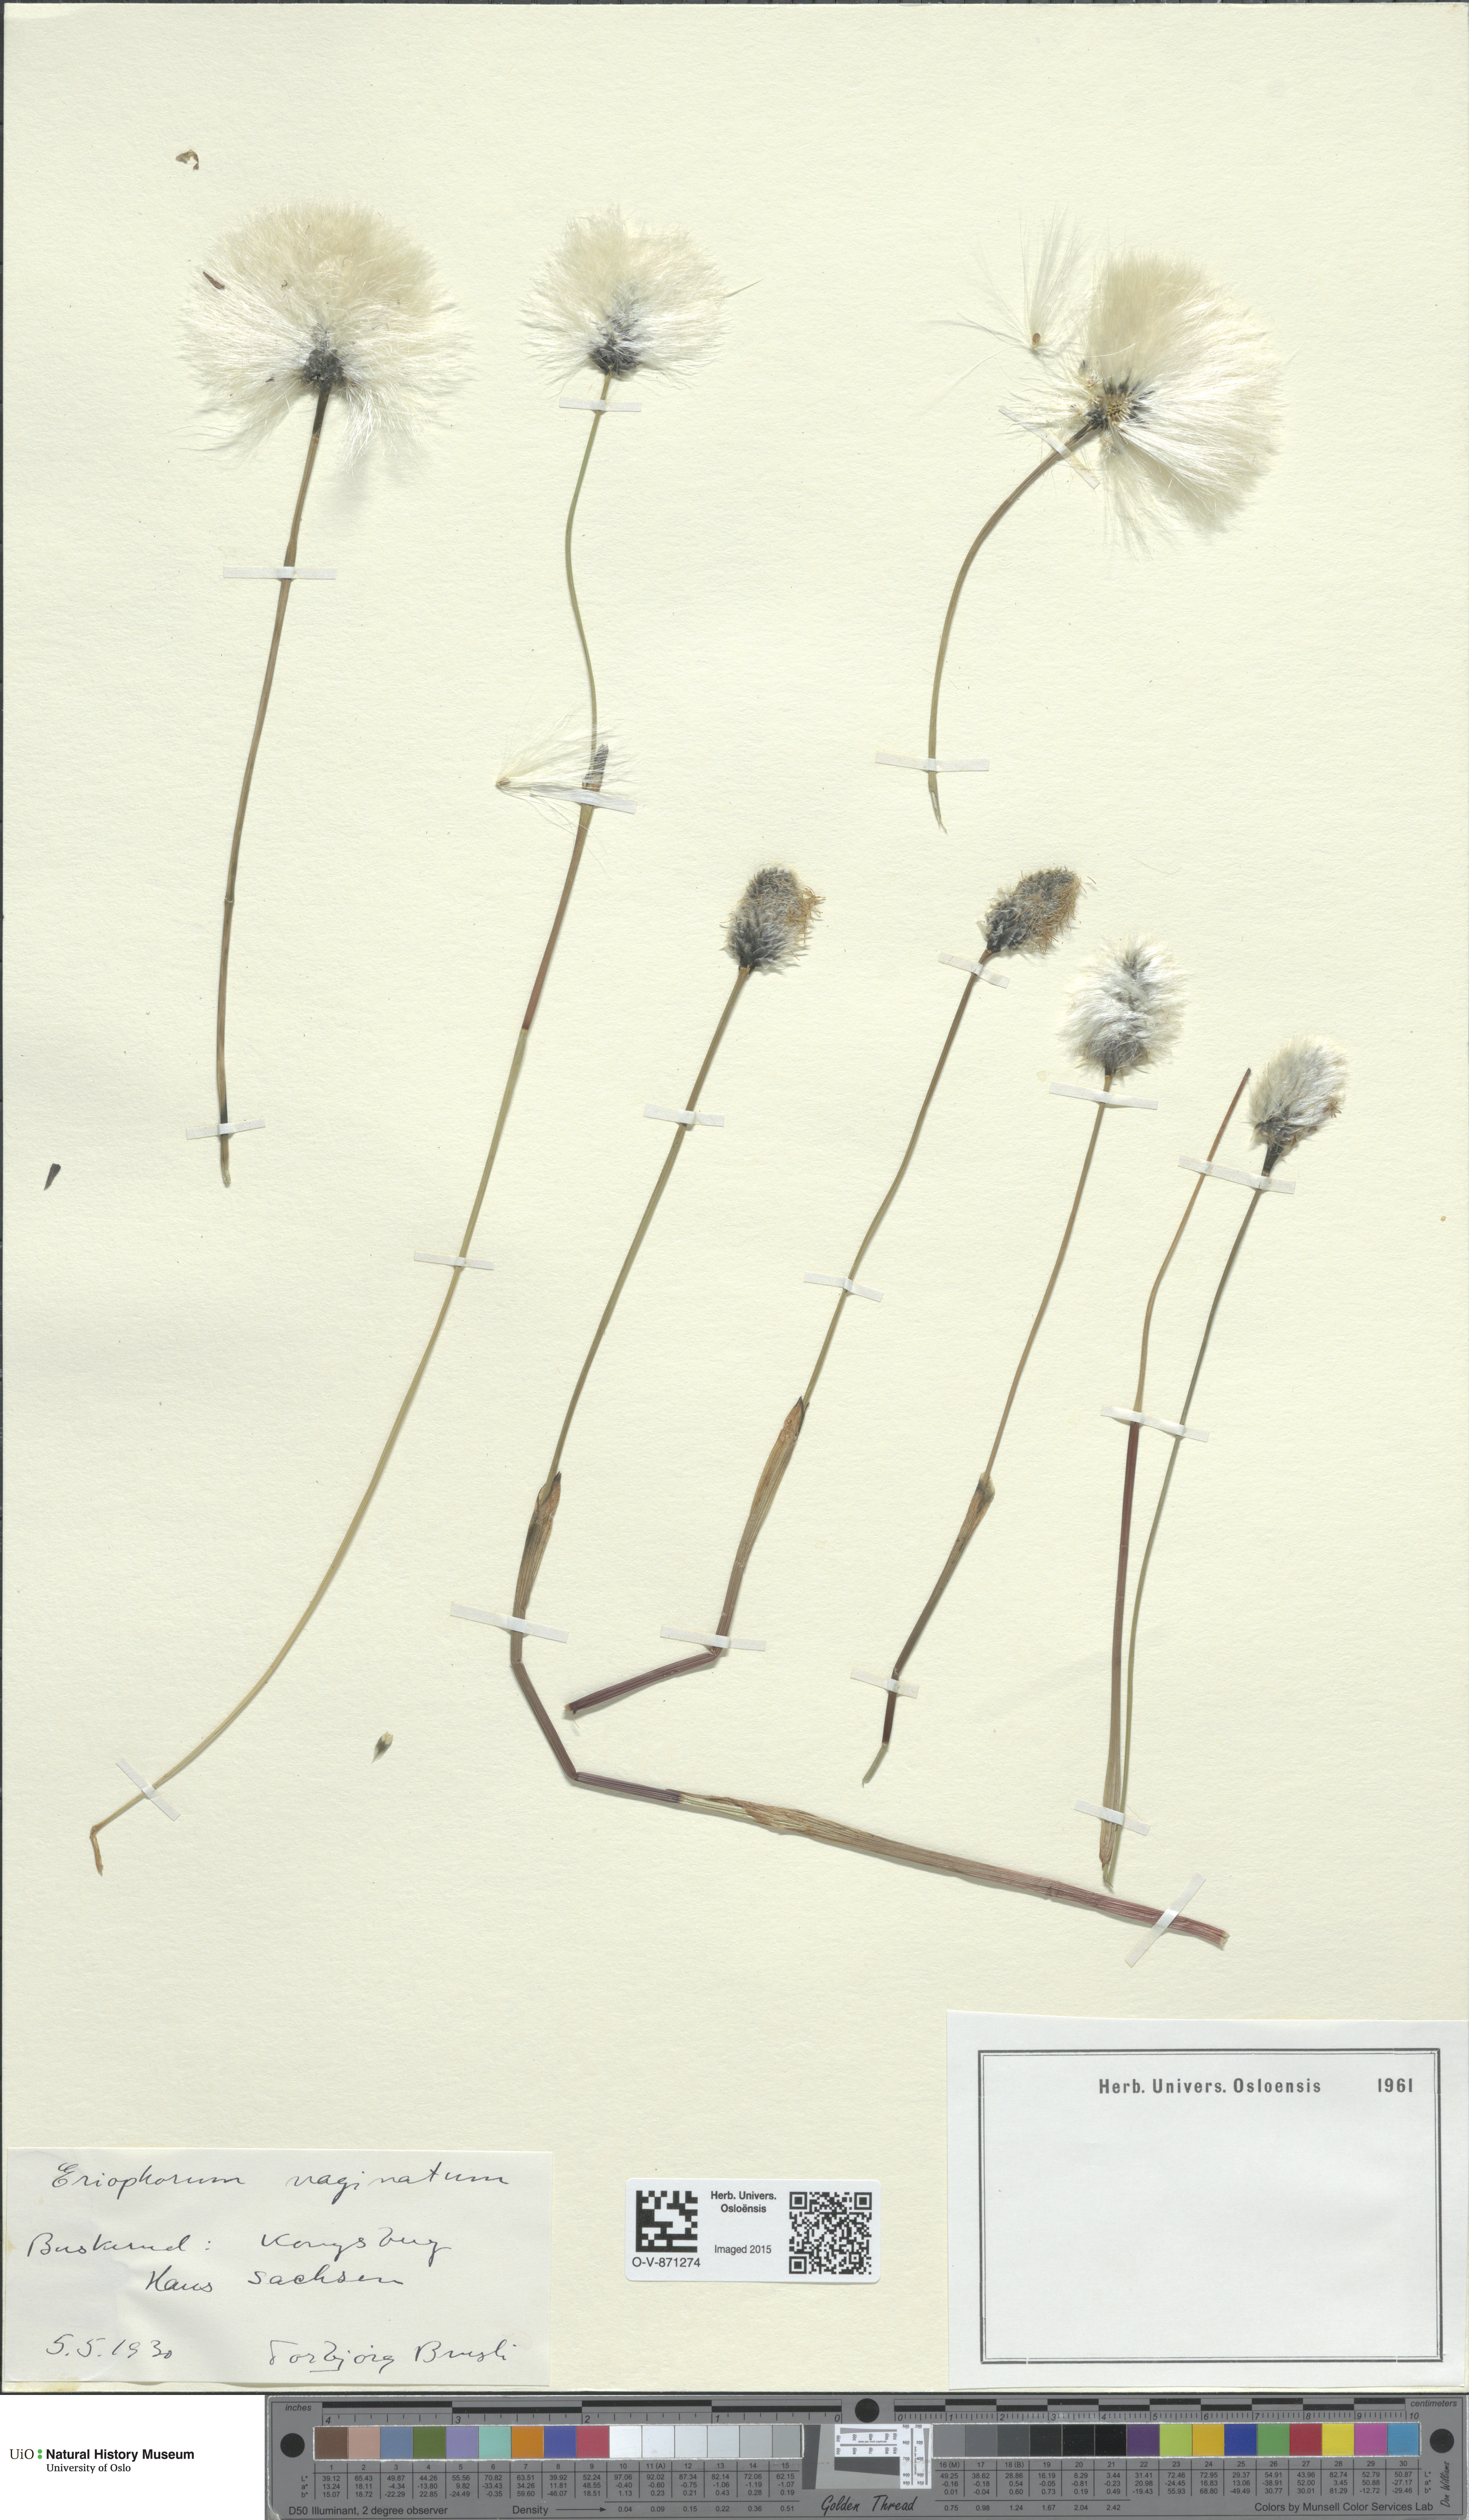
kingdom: Plantae
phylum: Tracheophyta
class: Liliopsida
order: Poales
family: Cyperaceae
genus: Eriophorum
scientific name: Eriophorum vaginatum
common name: Hare's-tail cottongrass
